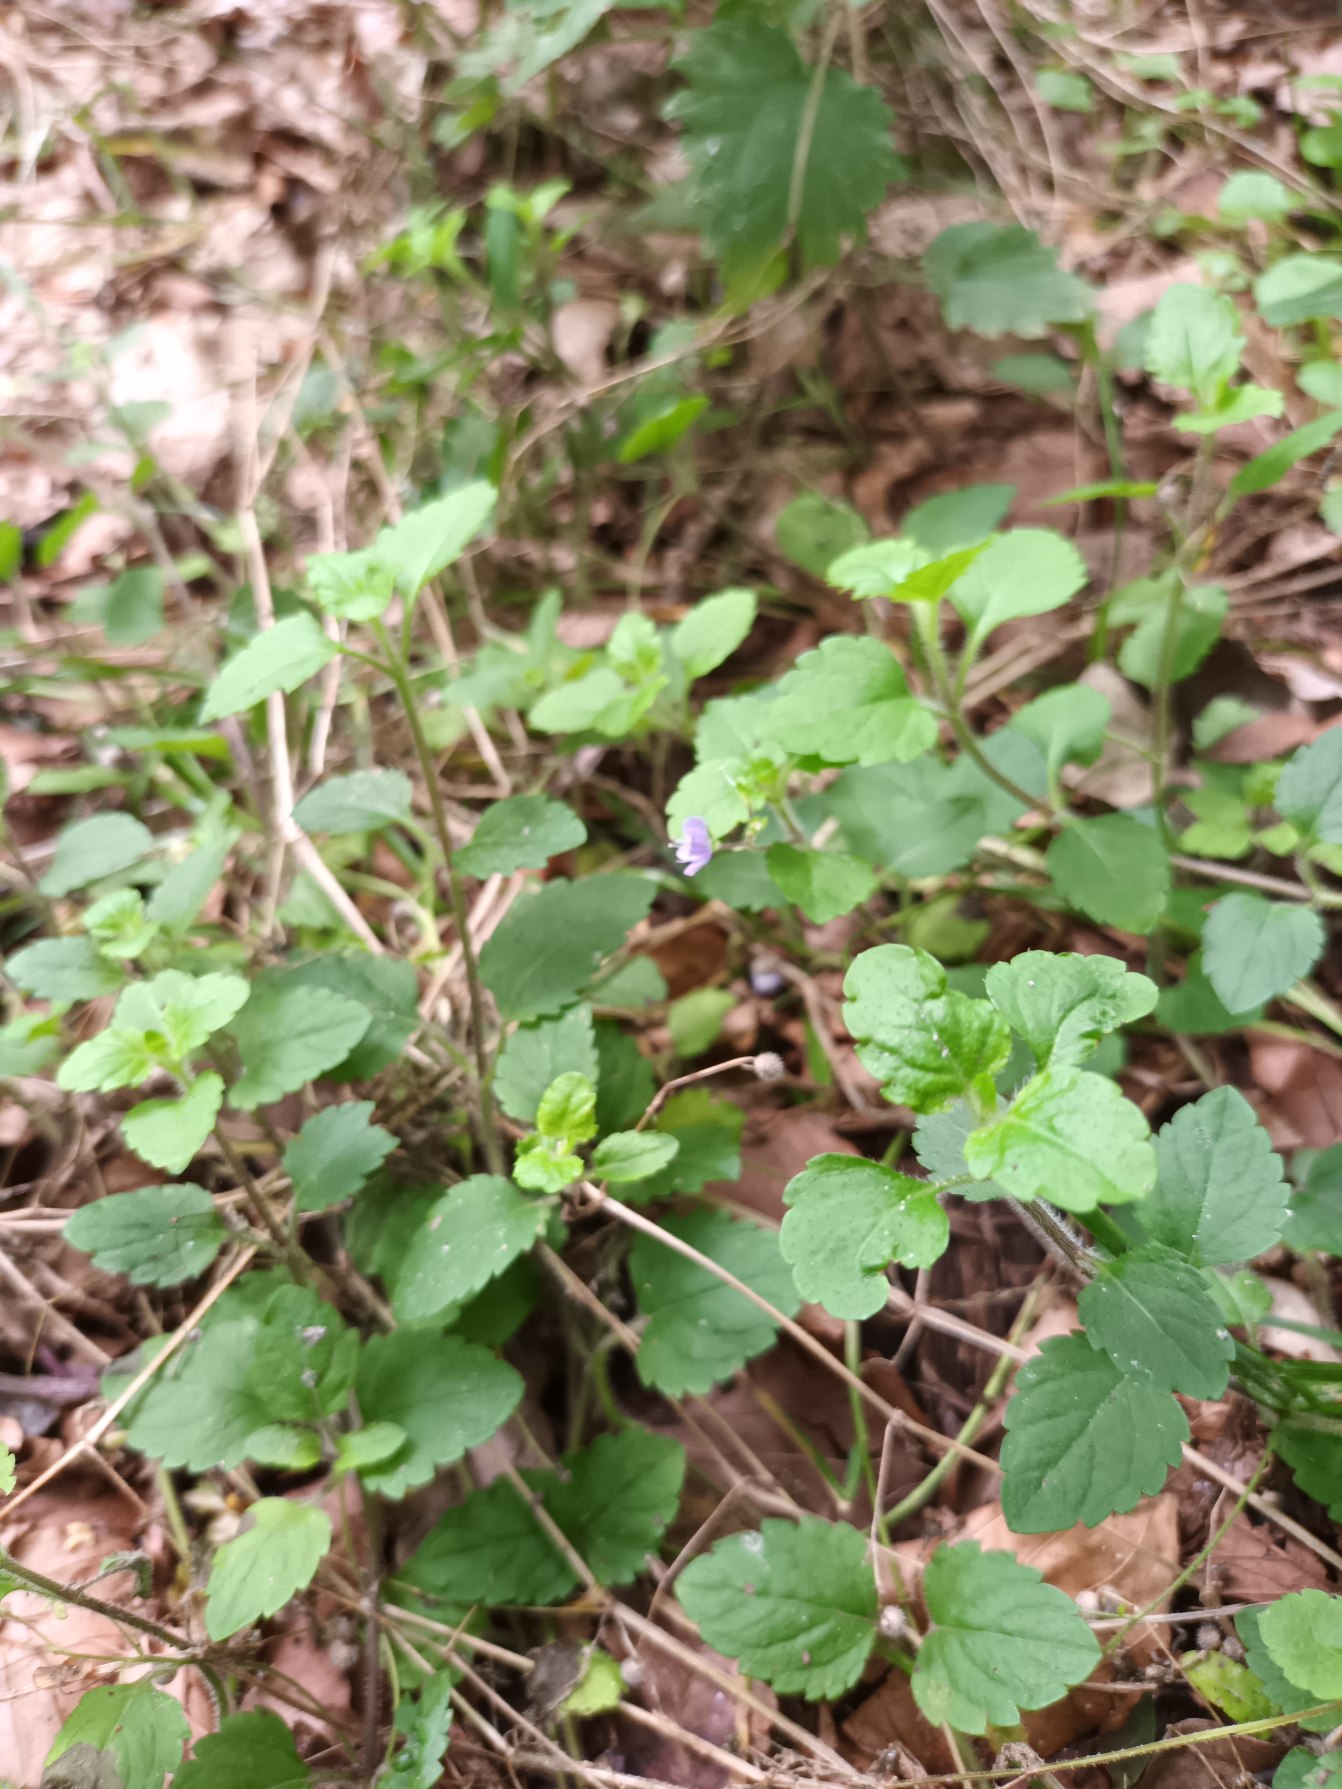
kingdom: Plantae
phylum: Tracheophyta
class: Magnoliopsida
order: Lamiales
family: Plantaginaceae
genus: Veronica
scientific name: Veronica montana
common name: Bjerg-ærenpris
